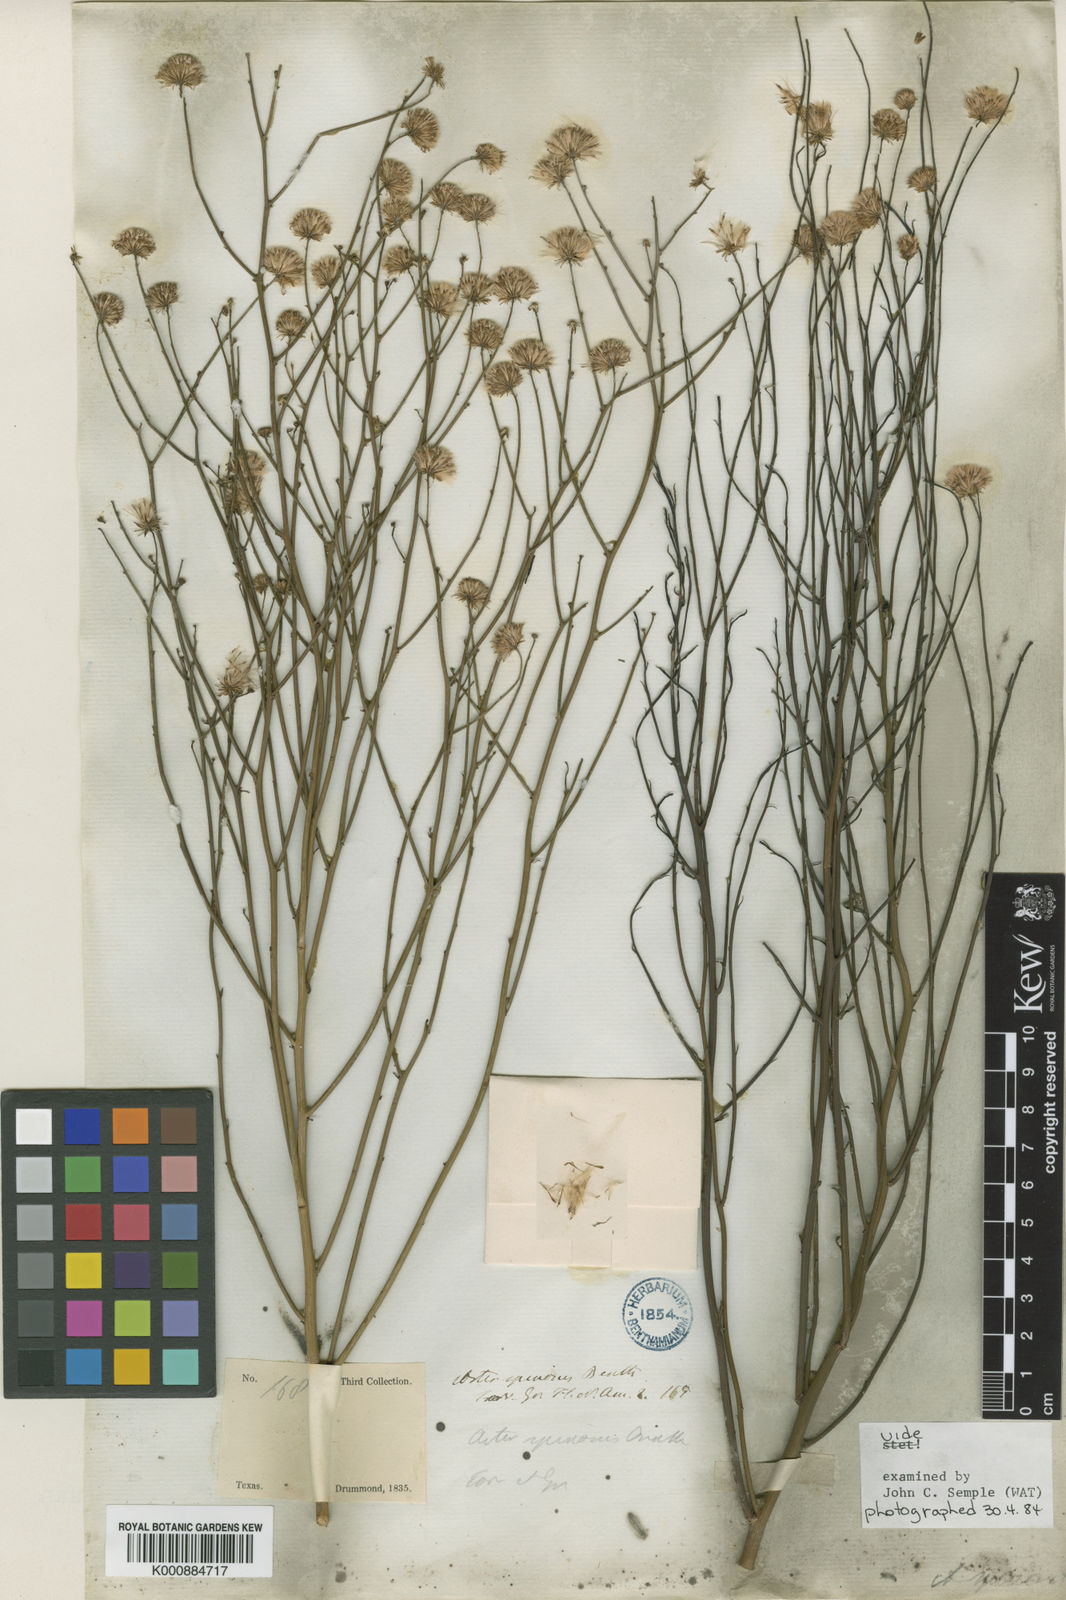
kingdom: Plantae
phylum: Tracheophyta
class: Magnoliopsida
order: Asterales
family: Asteraceae
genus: Chloracantha
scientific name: Chloracantha spinosa
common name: Mexican devilweed
